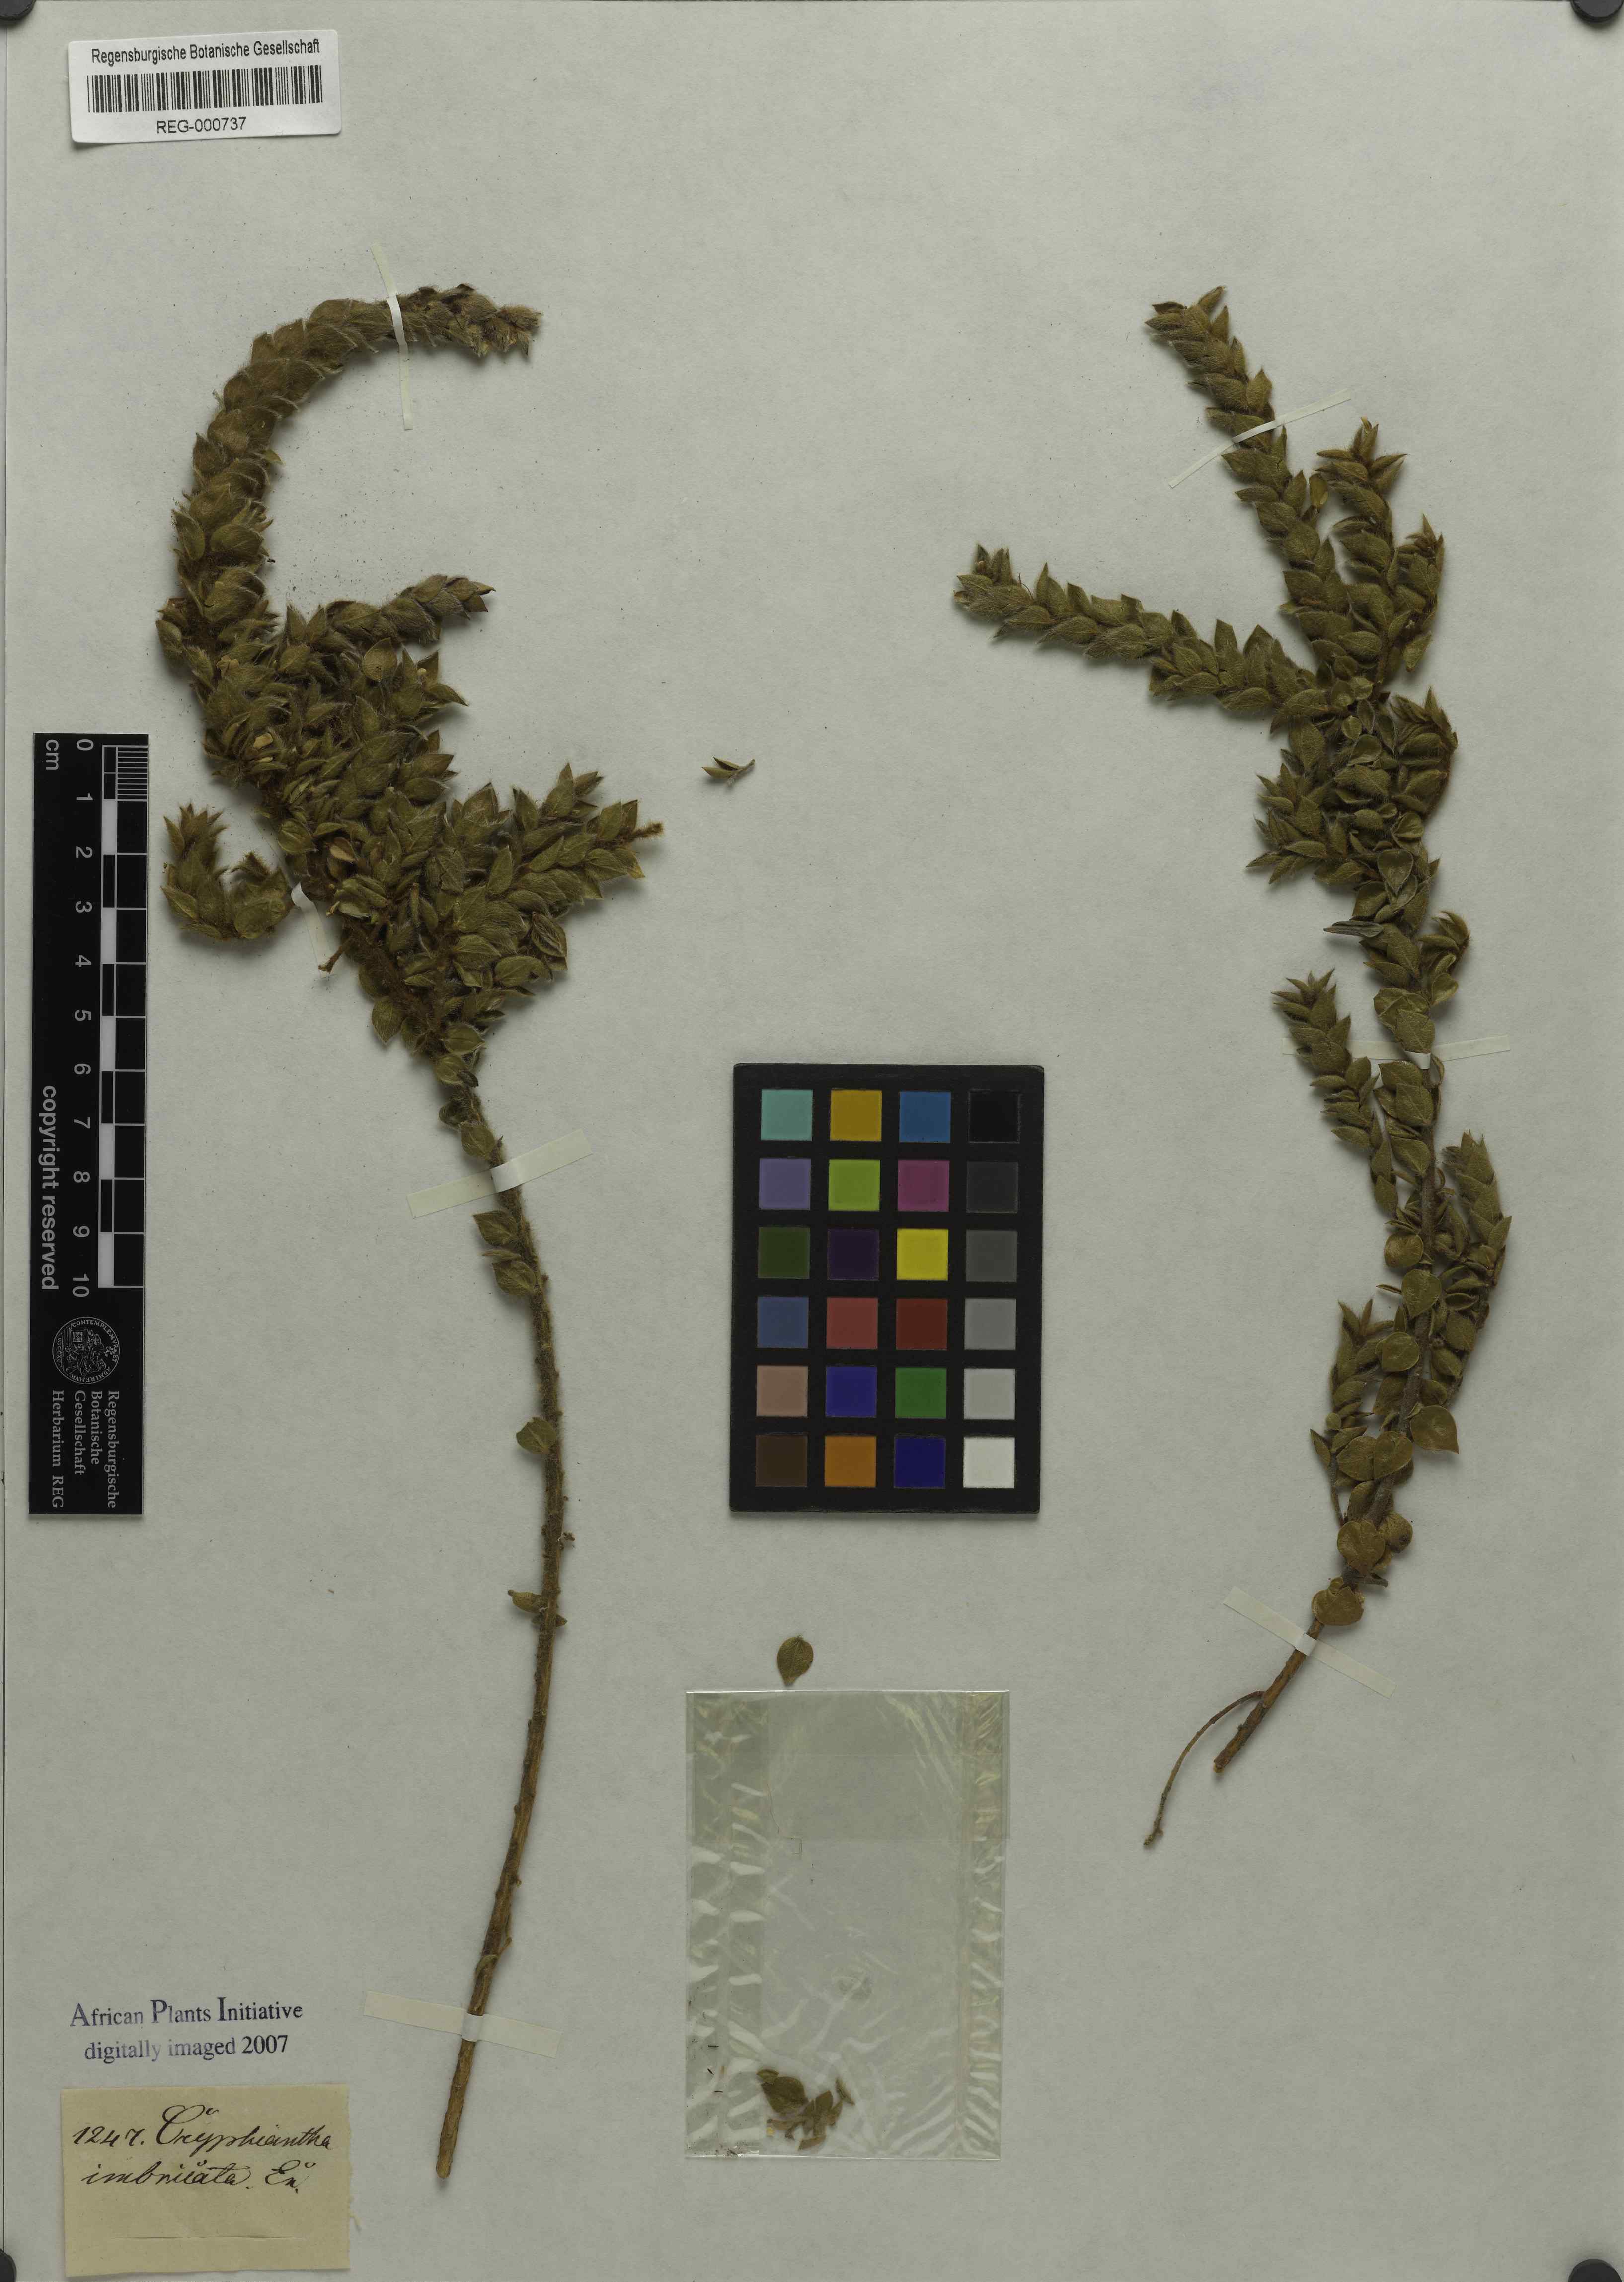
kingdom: Plantae
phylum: Tracheophyta
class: Magnoliopsida
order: Fabales
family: Fabaceae
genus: Amphithalea
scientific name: Amphithalea micrantha
